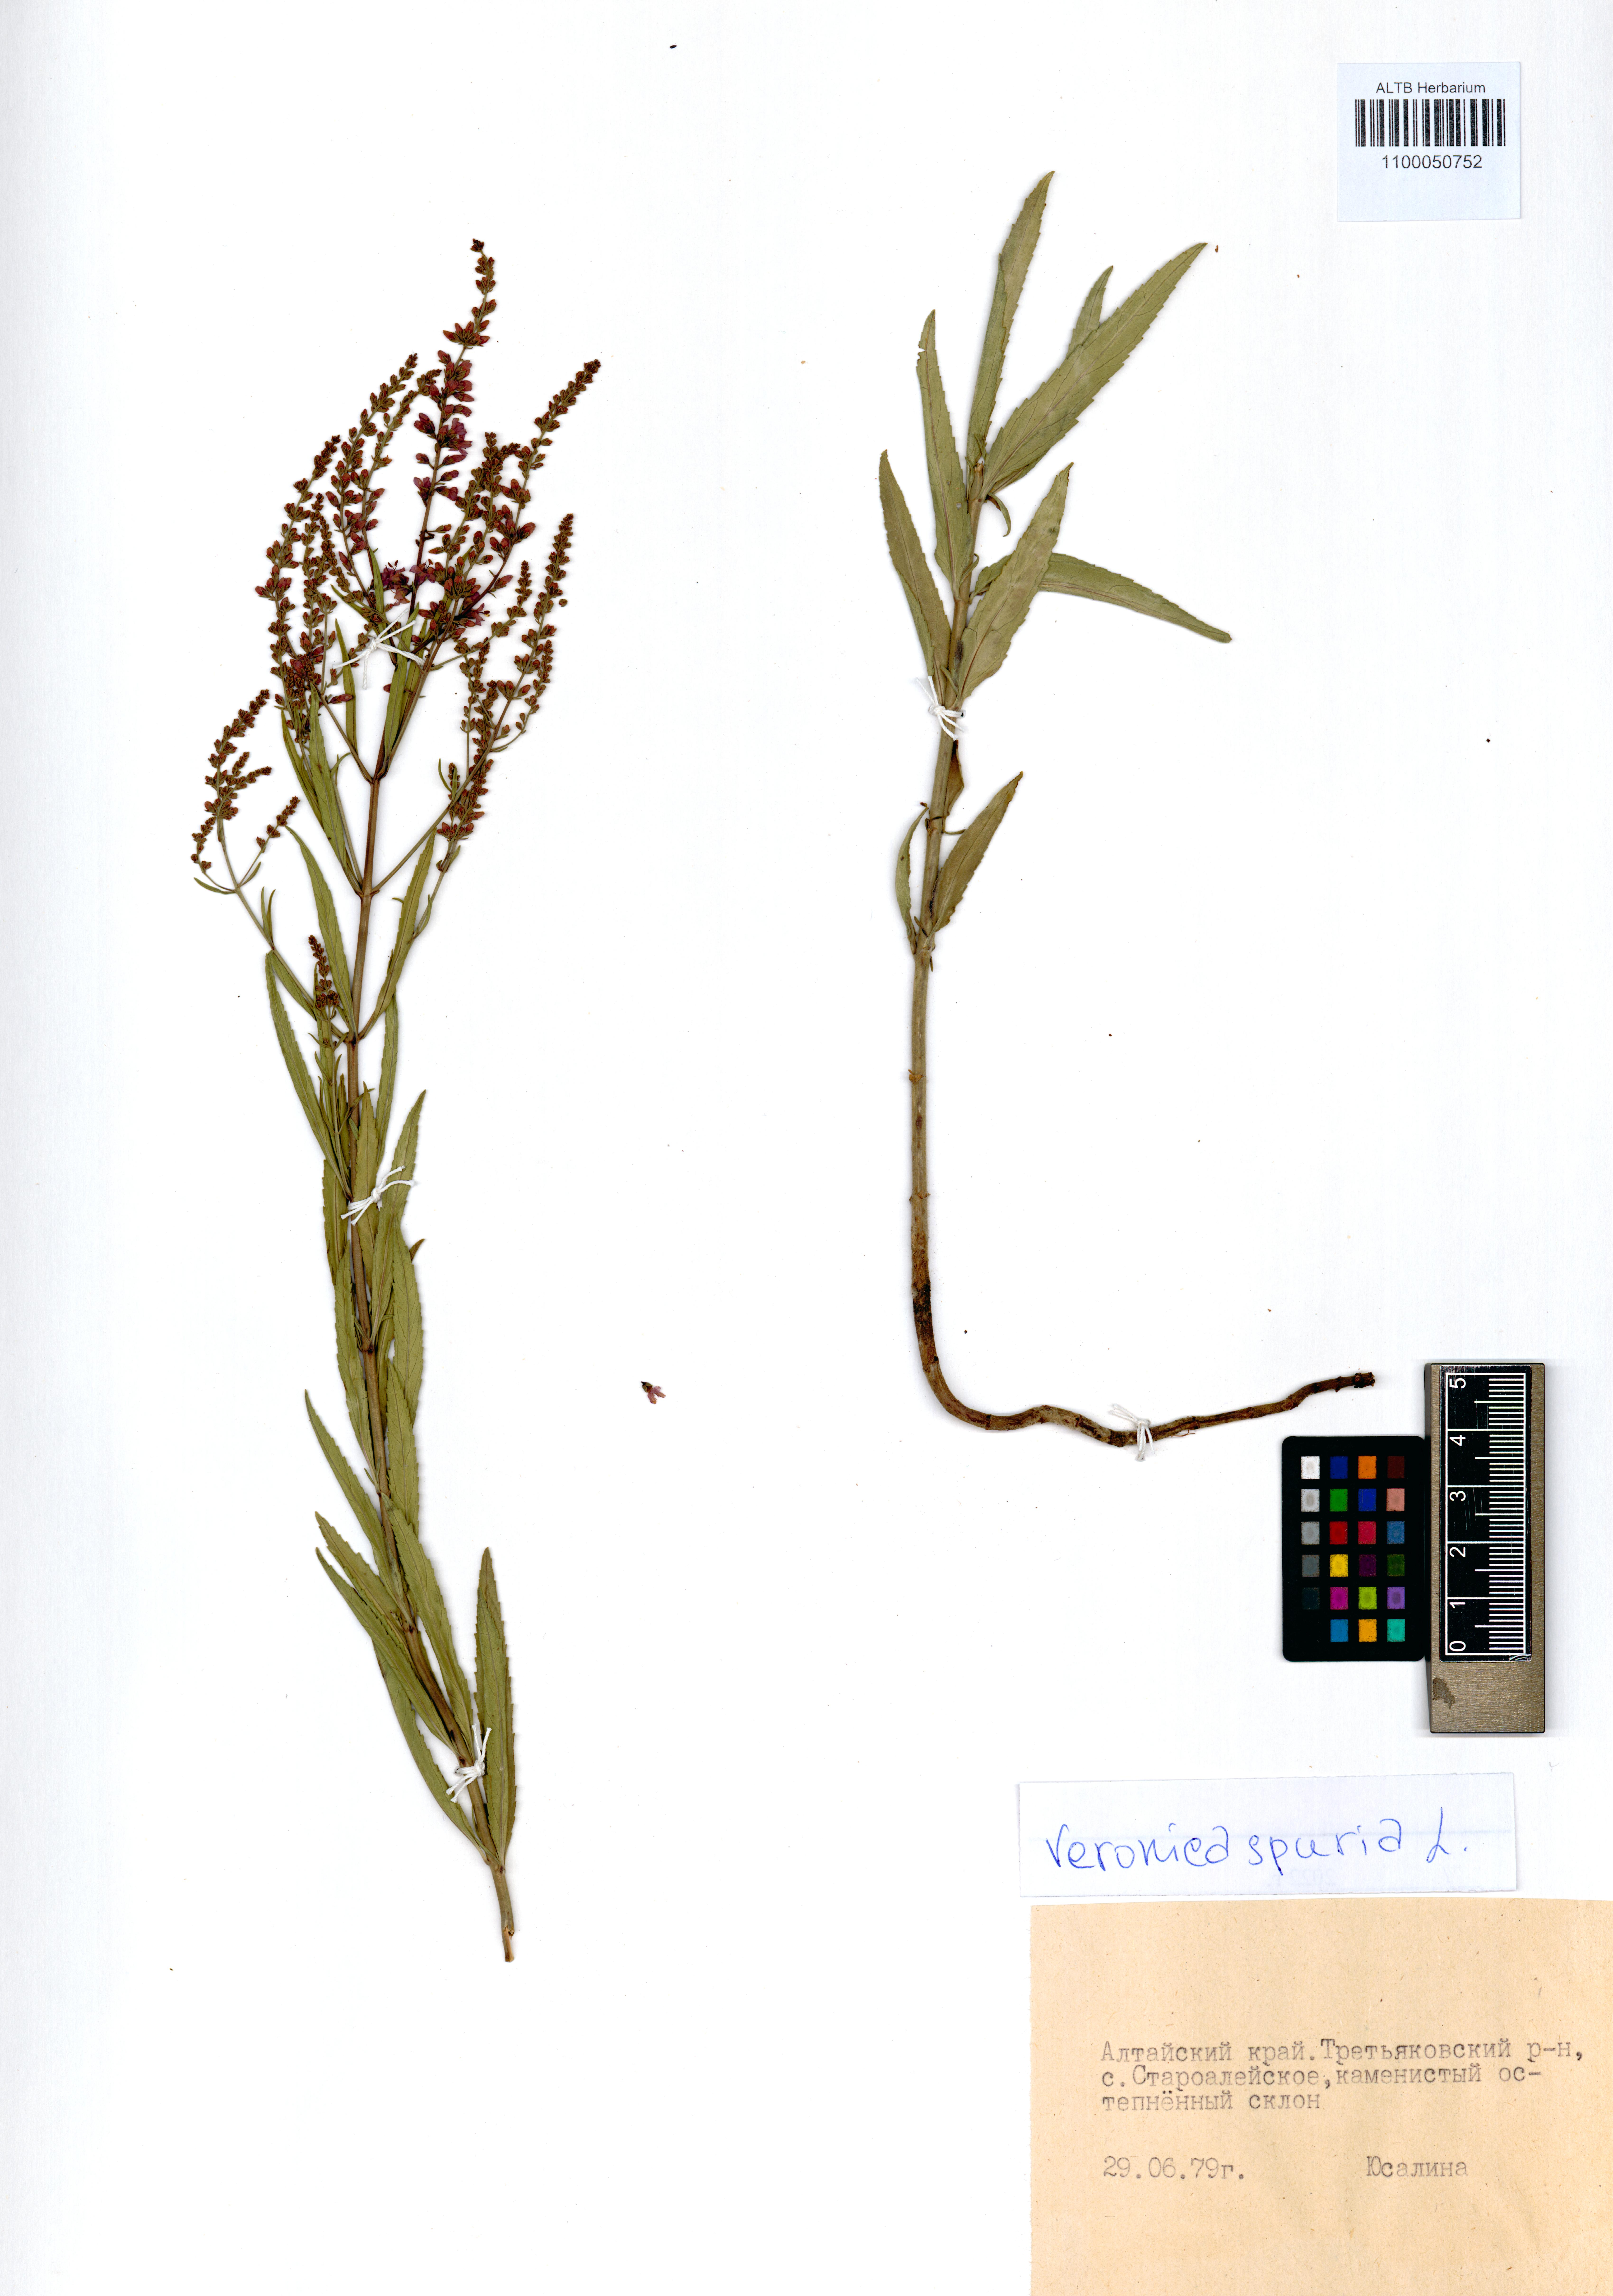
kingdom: Plantae
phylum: Tracheophyta
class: Magnoliopsida
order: Lamiales
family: Plantaginaceae
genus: Veronica
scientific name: Veronica spuria
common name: Bastard speedwell
